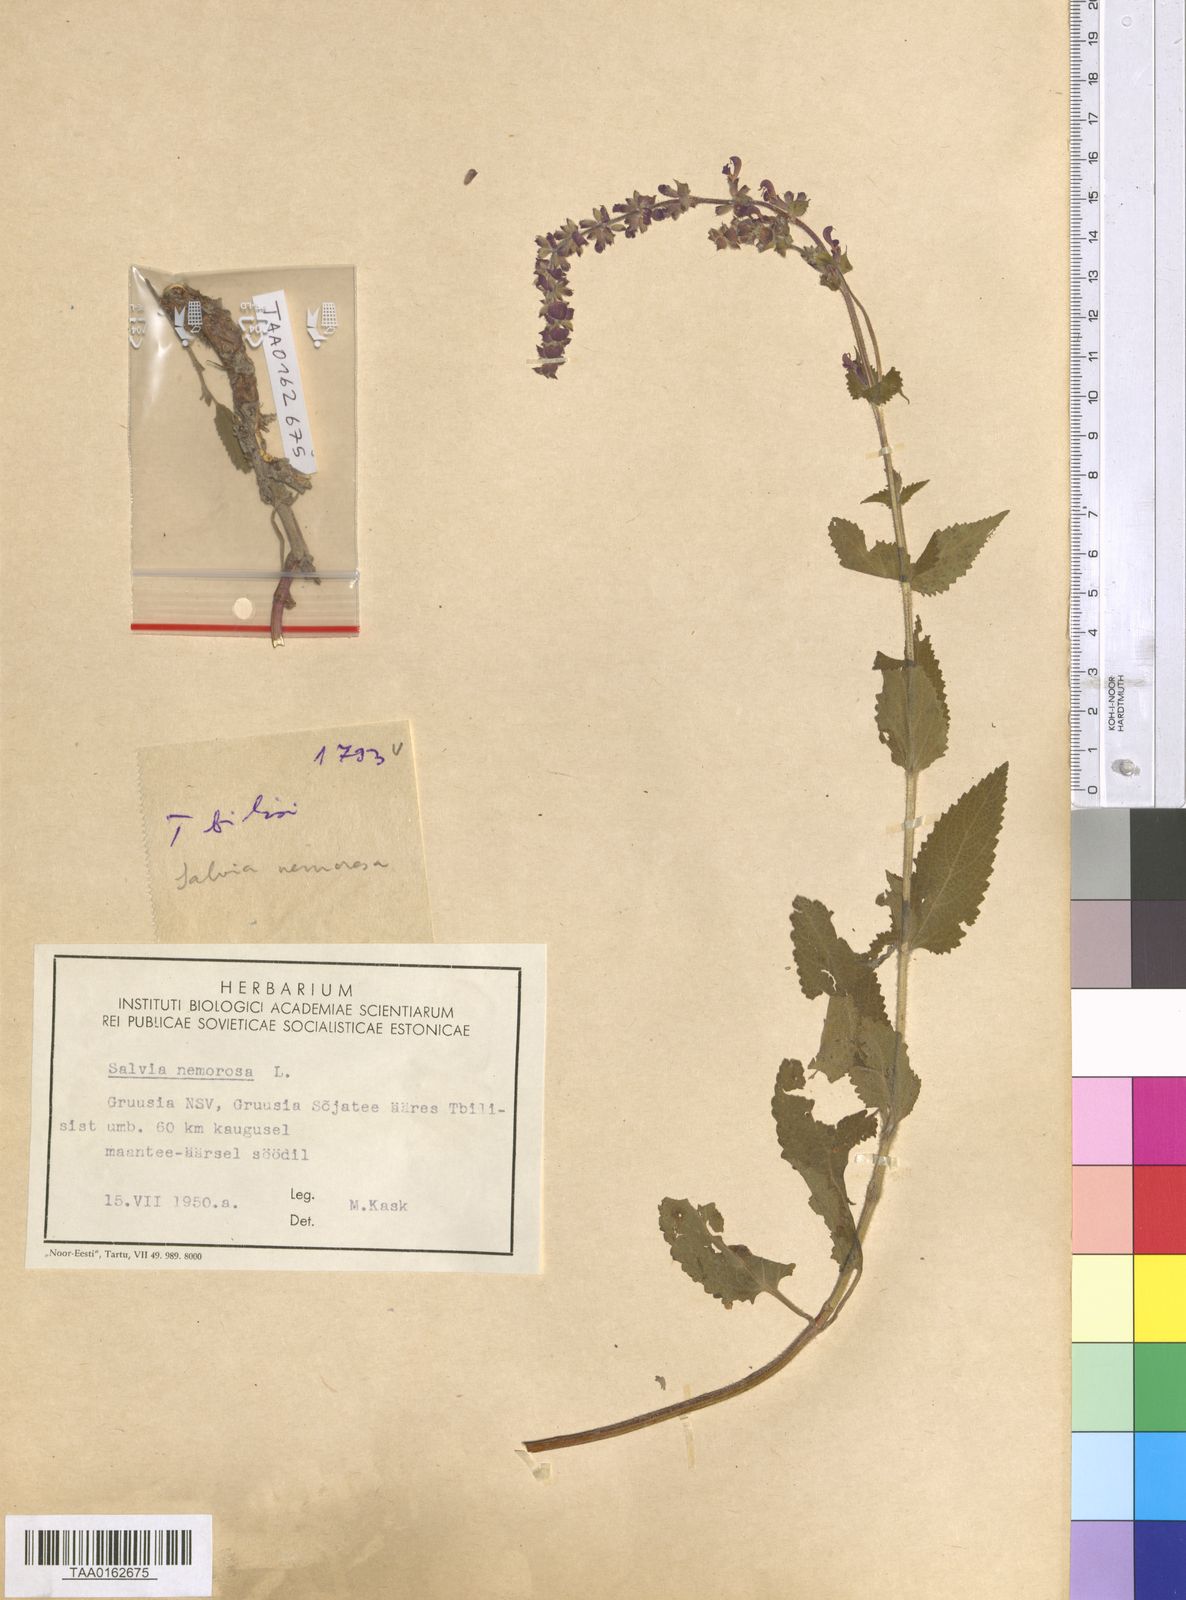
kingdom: Plantae
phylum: Tracheophyta
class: Magnoliopsida
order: Lamiales
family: Lamiaceae
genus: Salvia
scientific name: Salvia nemorosa
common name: Balkan clary
